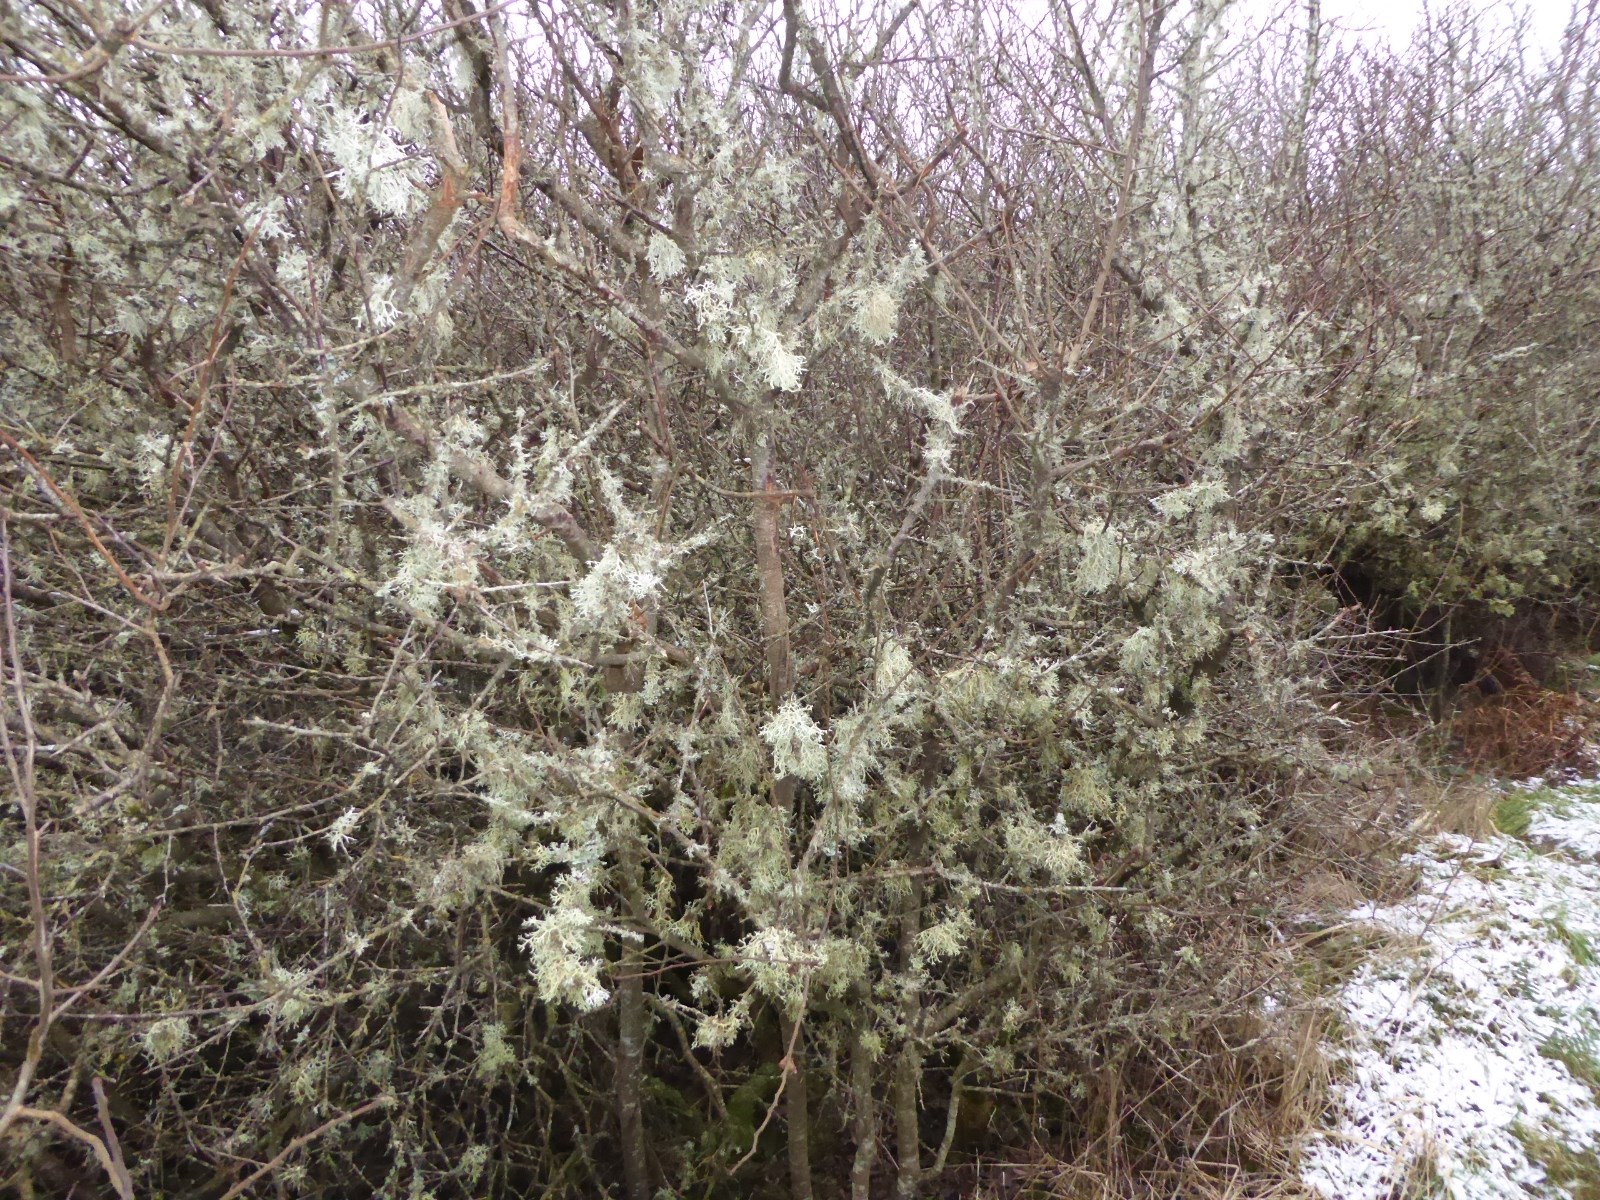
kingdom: Fungi
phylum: Ascomycota
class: Lecanoromycetes
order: Lecanorales
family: Parmeliaceae
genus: Evernia
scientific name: Evernia prunastri
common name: almindelig slåenlav
